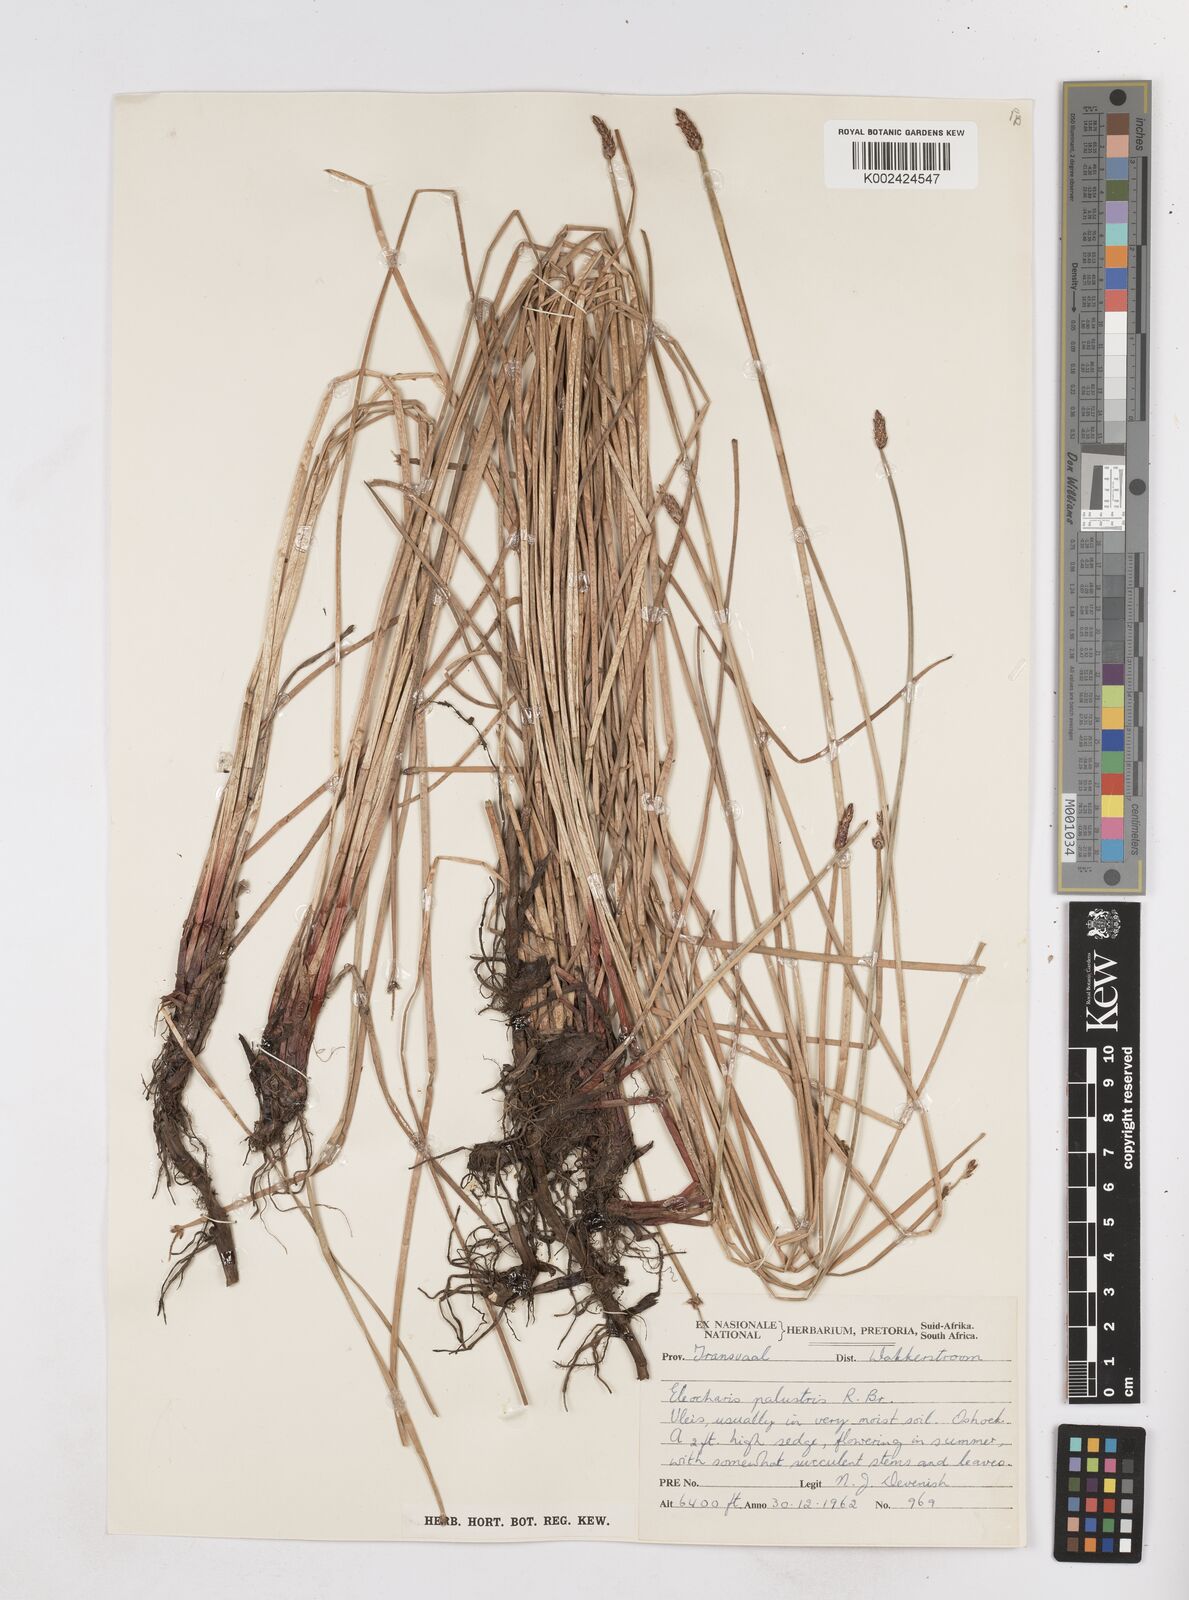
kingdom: Plantae
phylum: Tracheophyta
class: Liliopsida
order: Poales
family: Cyperaceae
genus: Eleocharis
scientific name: Eleocharis palustris
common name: Common spike-rush
